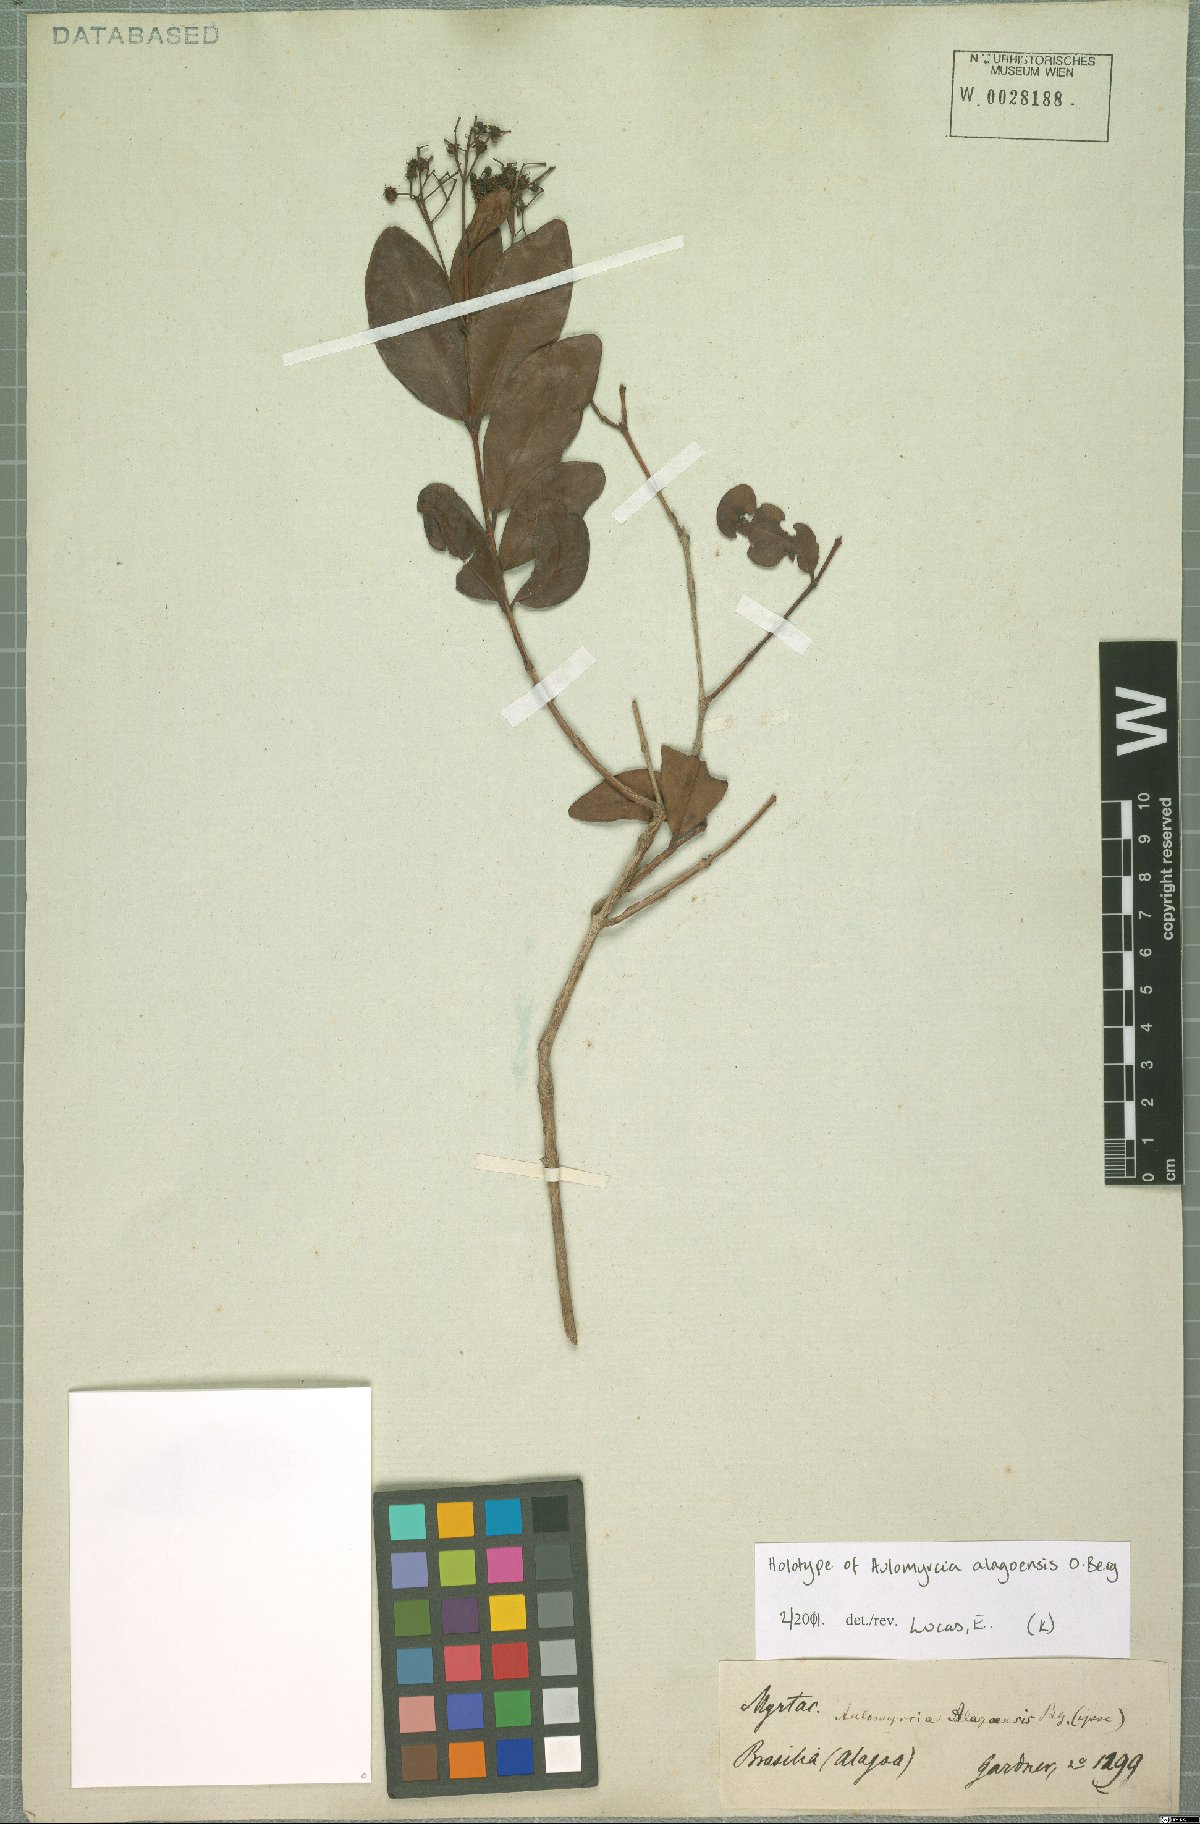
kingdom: Plantae
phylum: Tracheophyta
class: Magnoliopsida
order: Myrtales
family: Myrtaceae
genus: Myrcia
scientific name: Myrcia vattimoi
